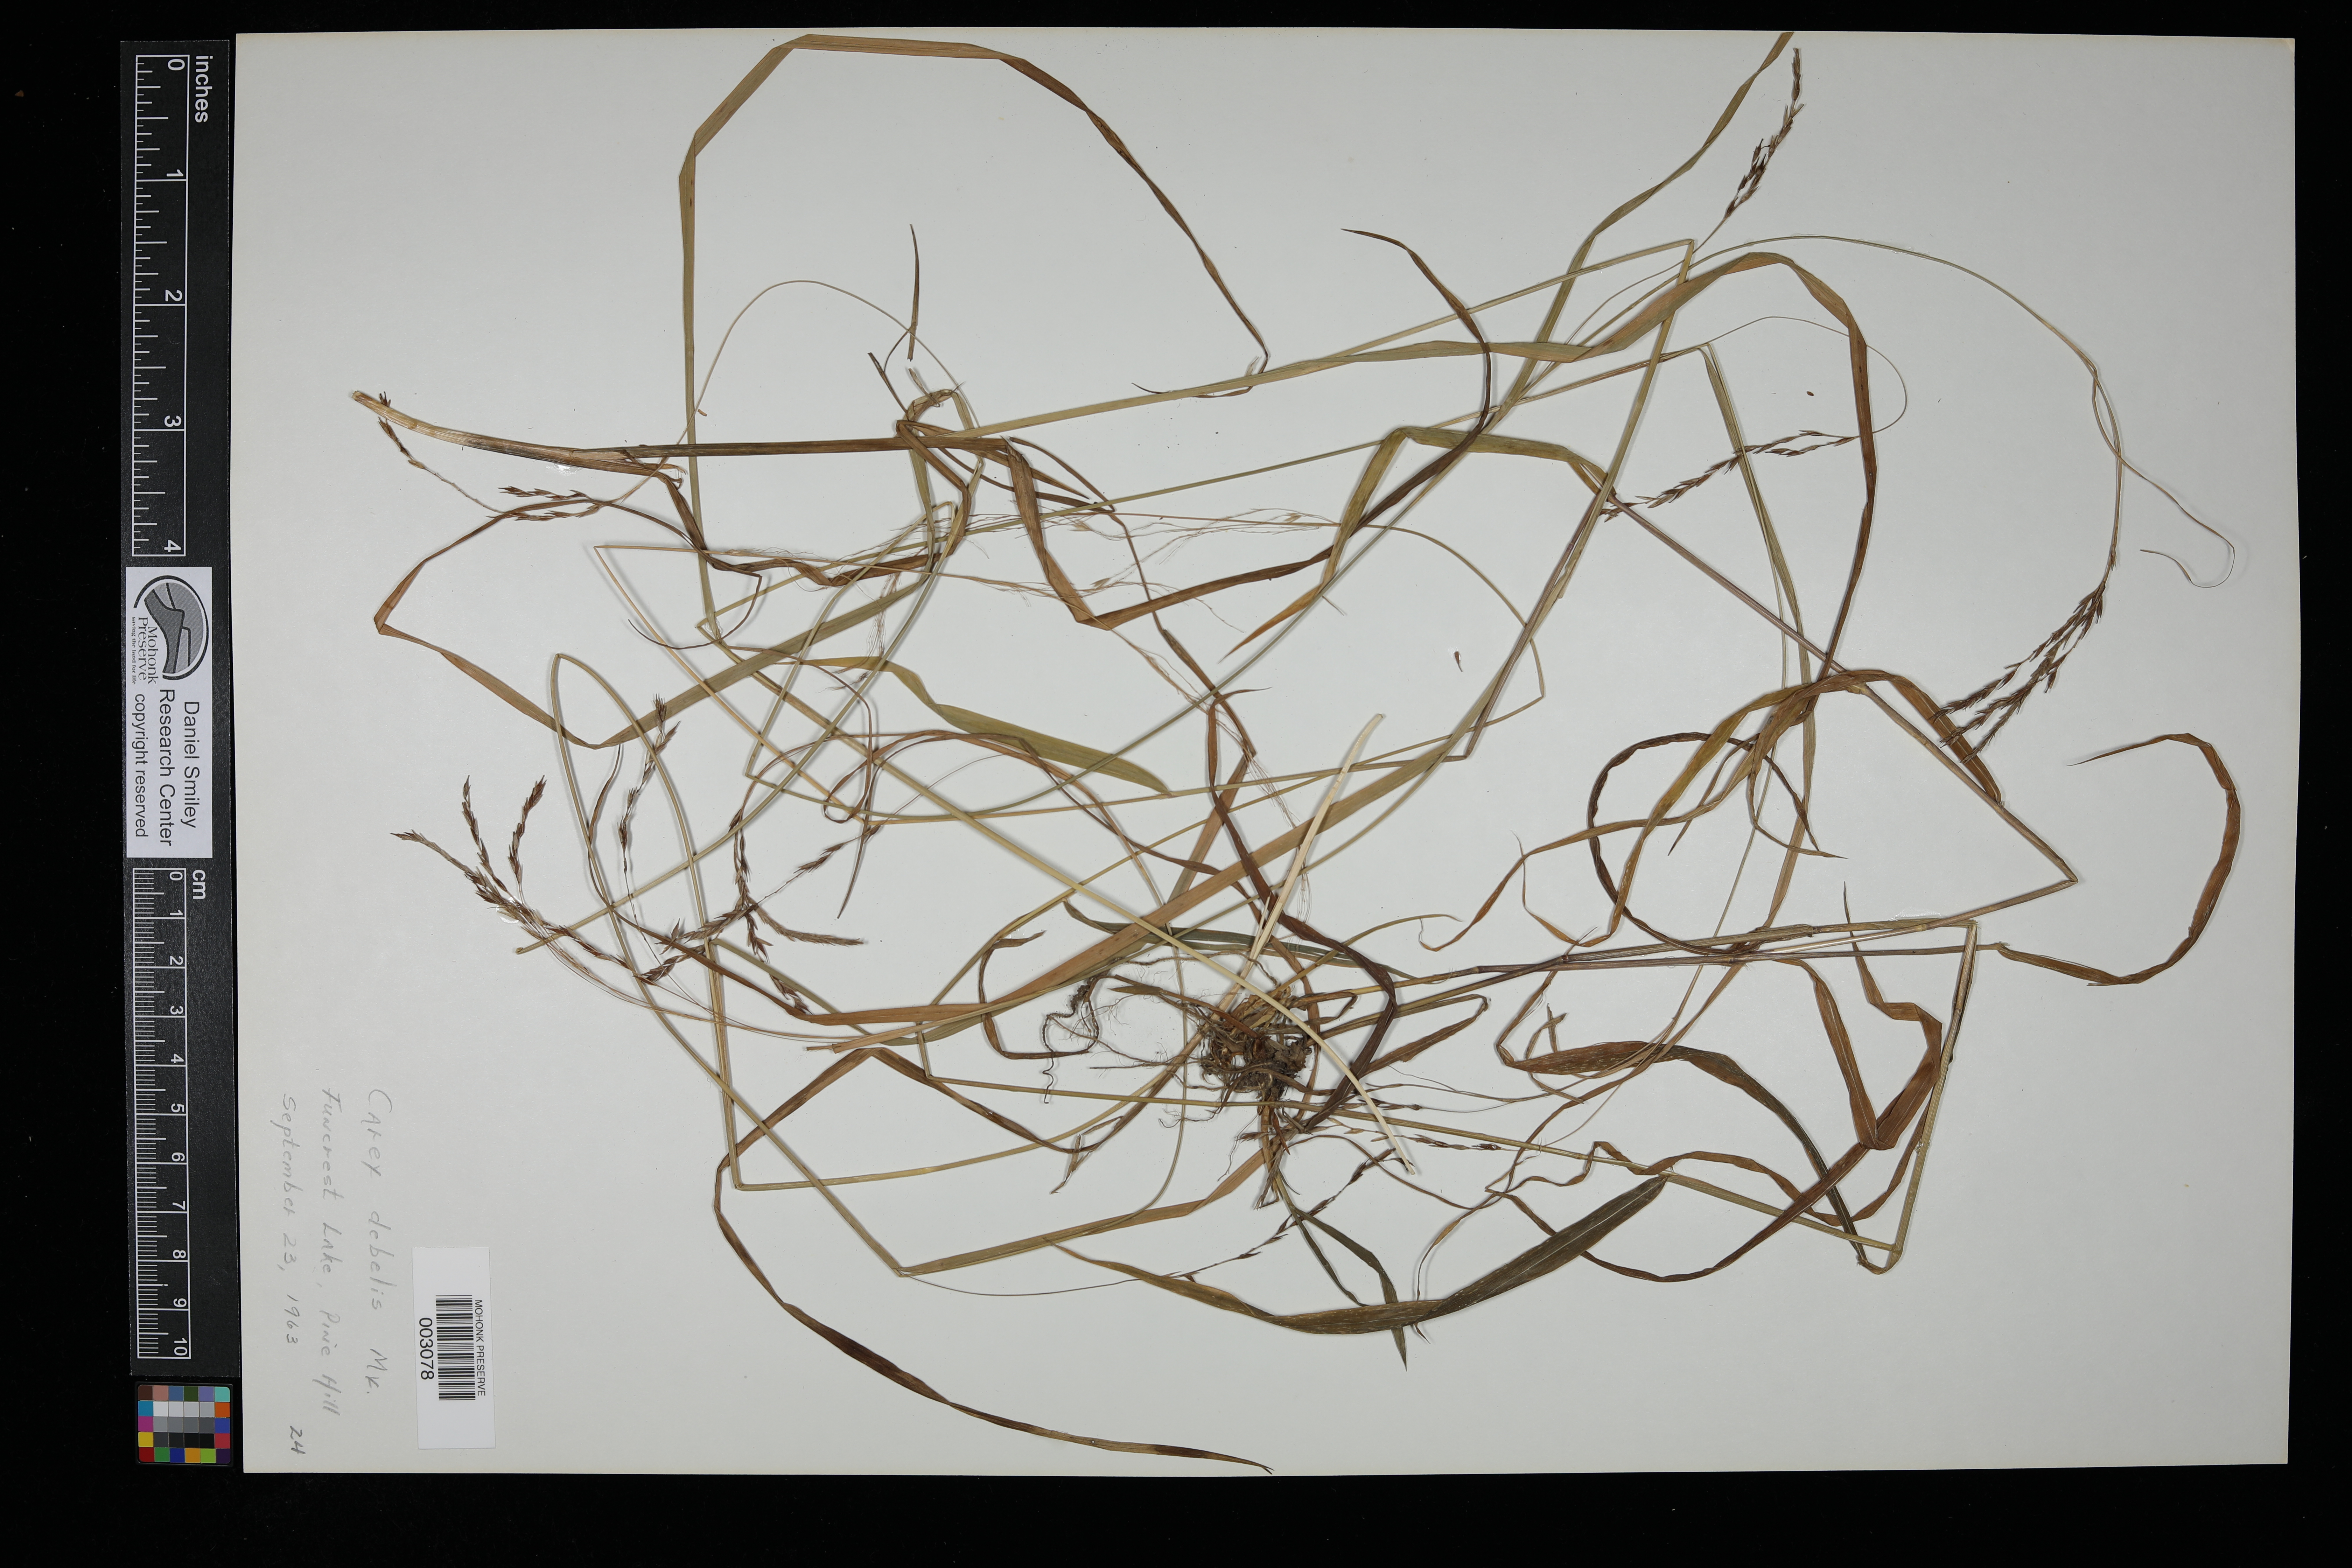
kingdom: Plantae
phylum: Tracheophyta
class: Liliopsida
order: Poales
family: Cyperaceae
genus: Carex
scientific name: Carex debilis
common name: White-edge sedge
